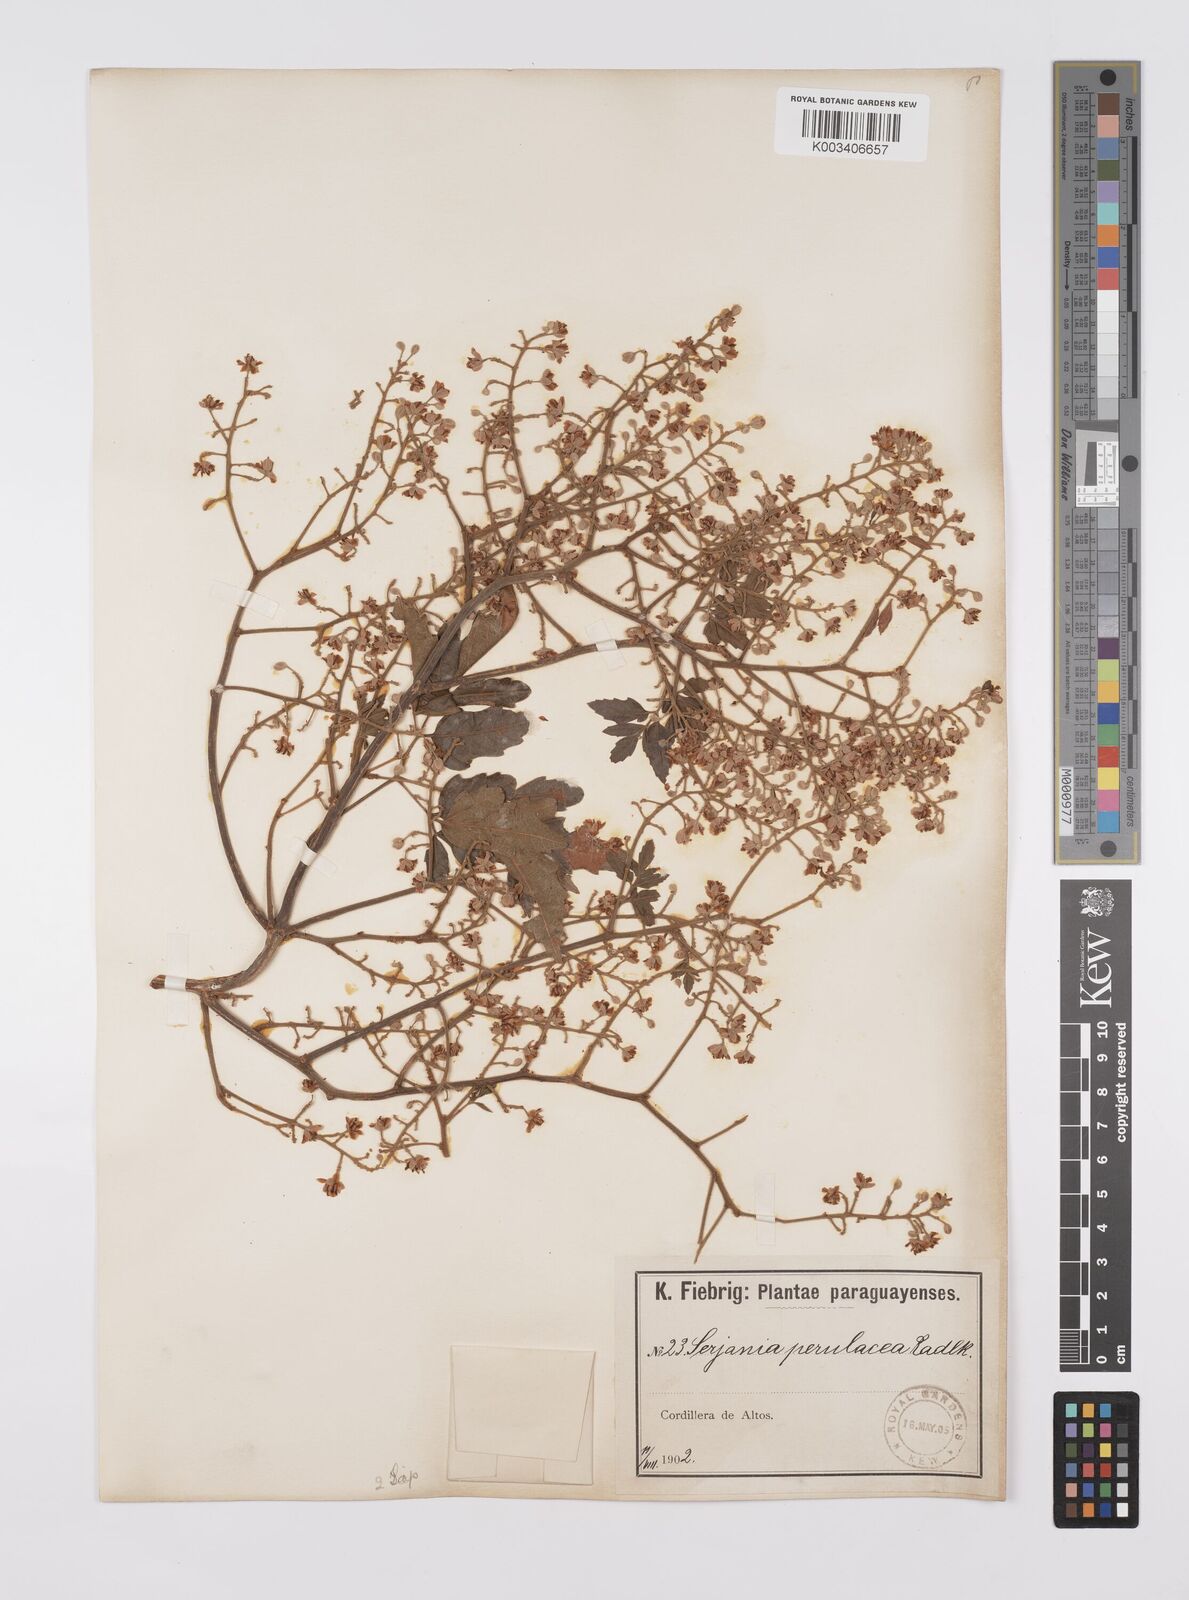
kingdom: Plantae
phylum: Tracheophyta
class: Magnoliopsida
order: Sapindales
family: Sapindaceae
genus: Serjania
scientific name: Serjania perulacea
